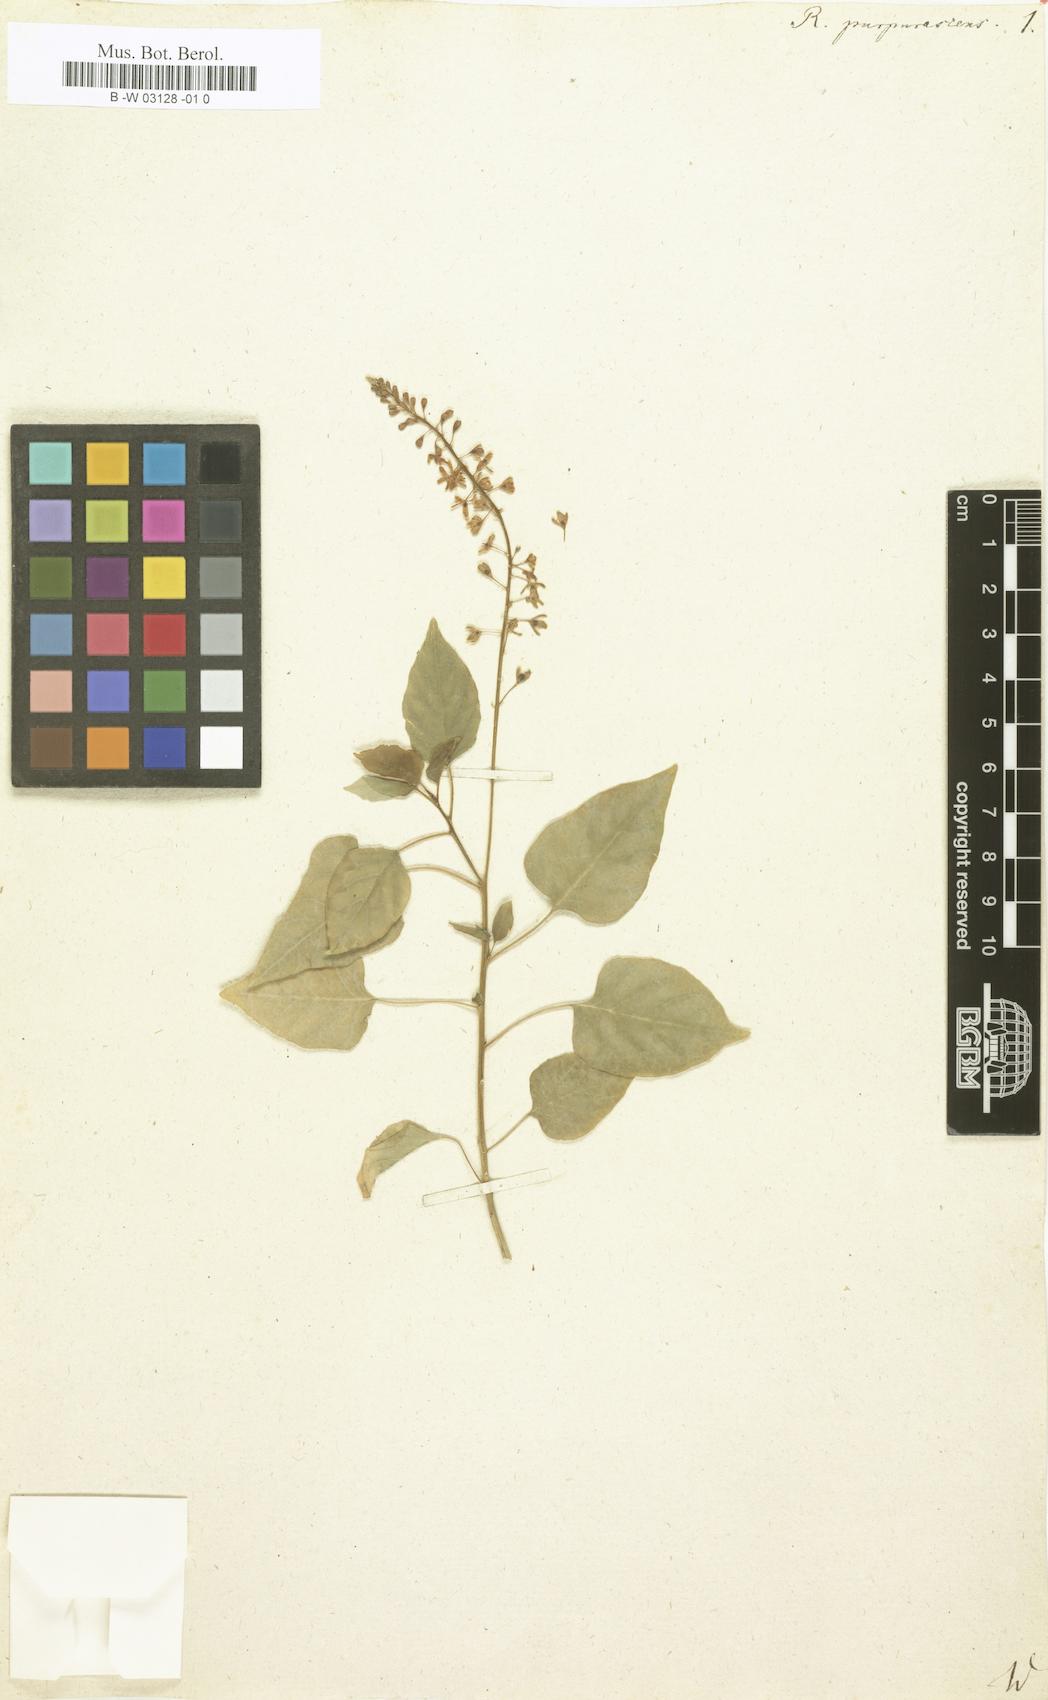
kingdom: Plantae
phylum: Tracheophyta
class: Magnoliopsida
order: Caryophyllales
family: Phytolaccaceae
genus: Rivina
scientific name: Rivina humilis
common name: Rougeplant
